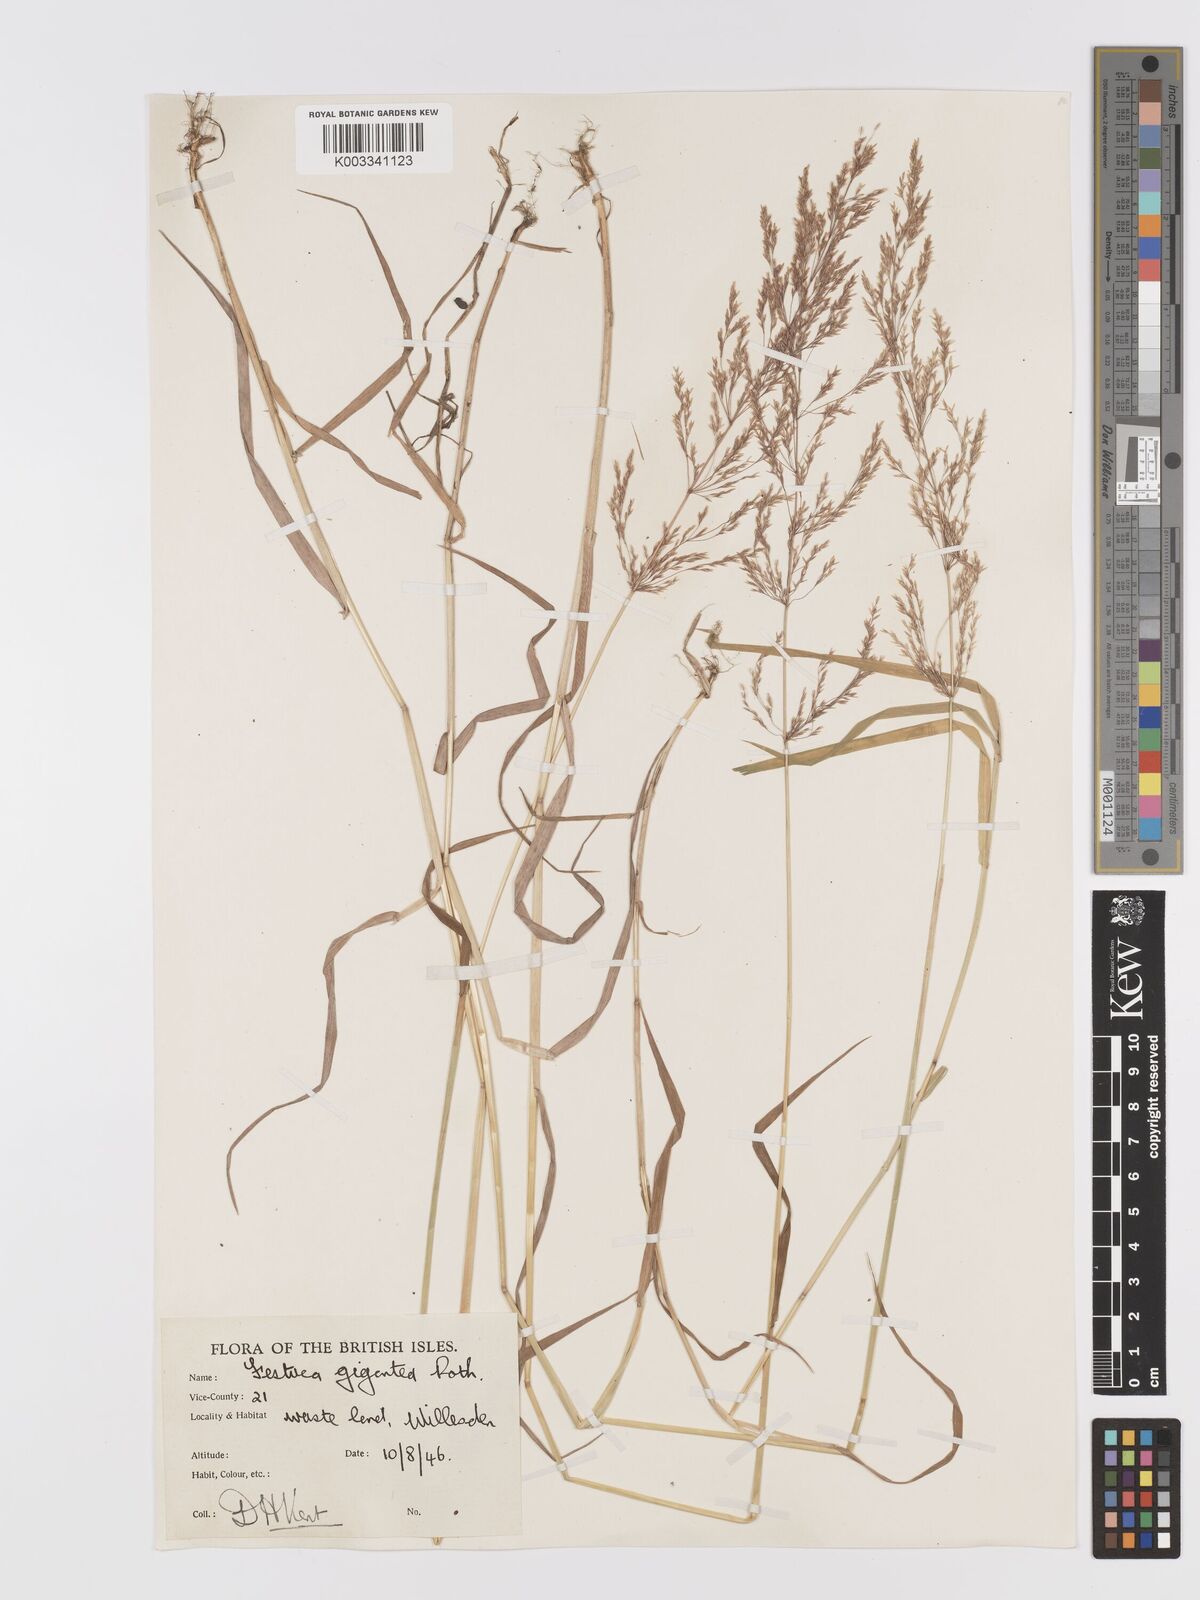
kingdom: Plantae
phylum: Tracheophyta
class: Liliopsida
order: Poales
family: Poaceae
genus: Agrostis
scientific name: Agrostis gigantea
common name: Black bent
